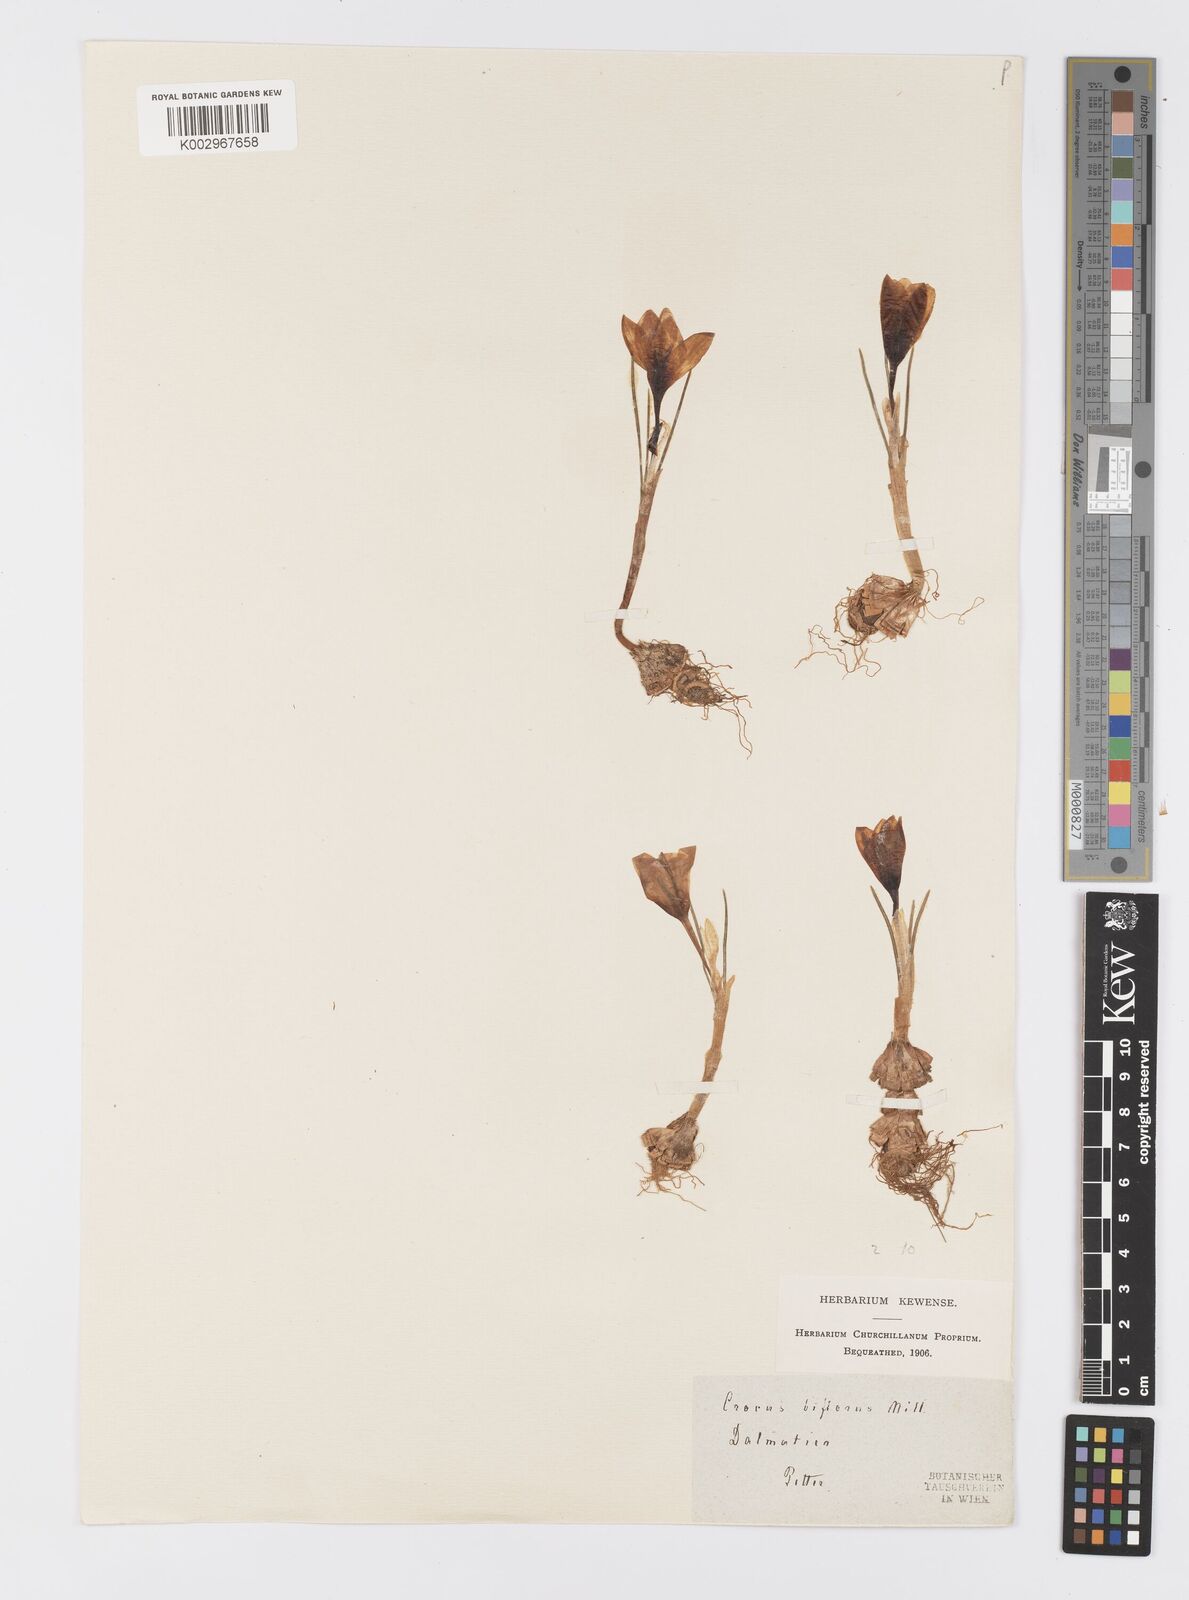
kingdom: Plantae
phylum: Tracheophyta
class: Liliopsida
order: Asparagales
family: Iridaceae
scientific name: Iridaceae
